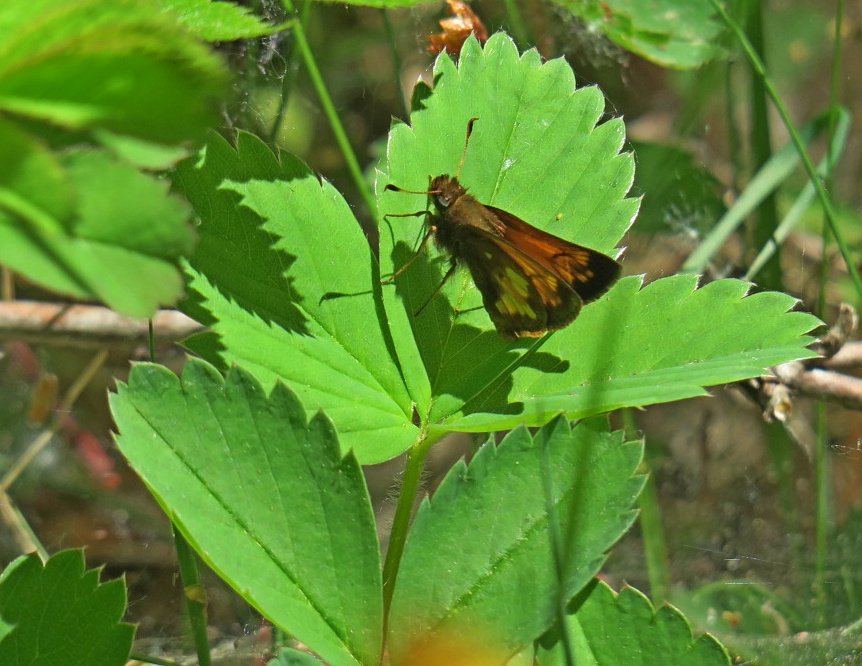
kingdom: Animalia
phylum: Arthropoda
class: Insecta
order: Lepidoptera
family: Hesperiidae
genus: Lon
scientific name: Lon hobomok
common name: Hobomok Skipper
